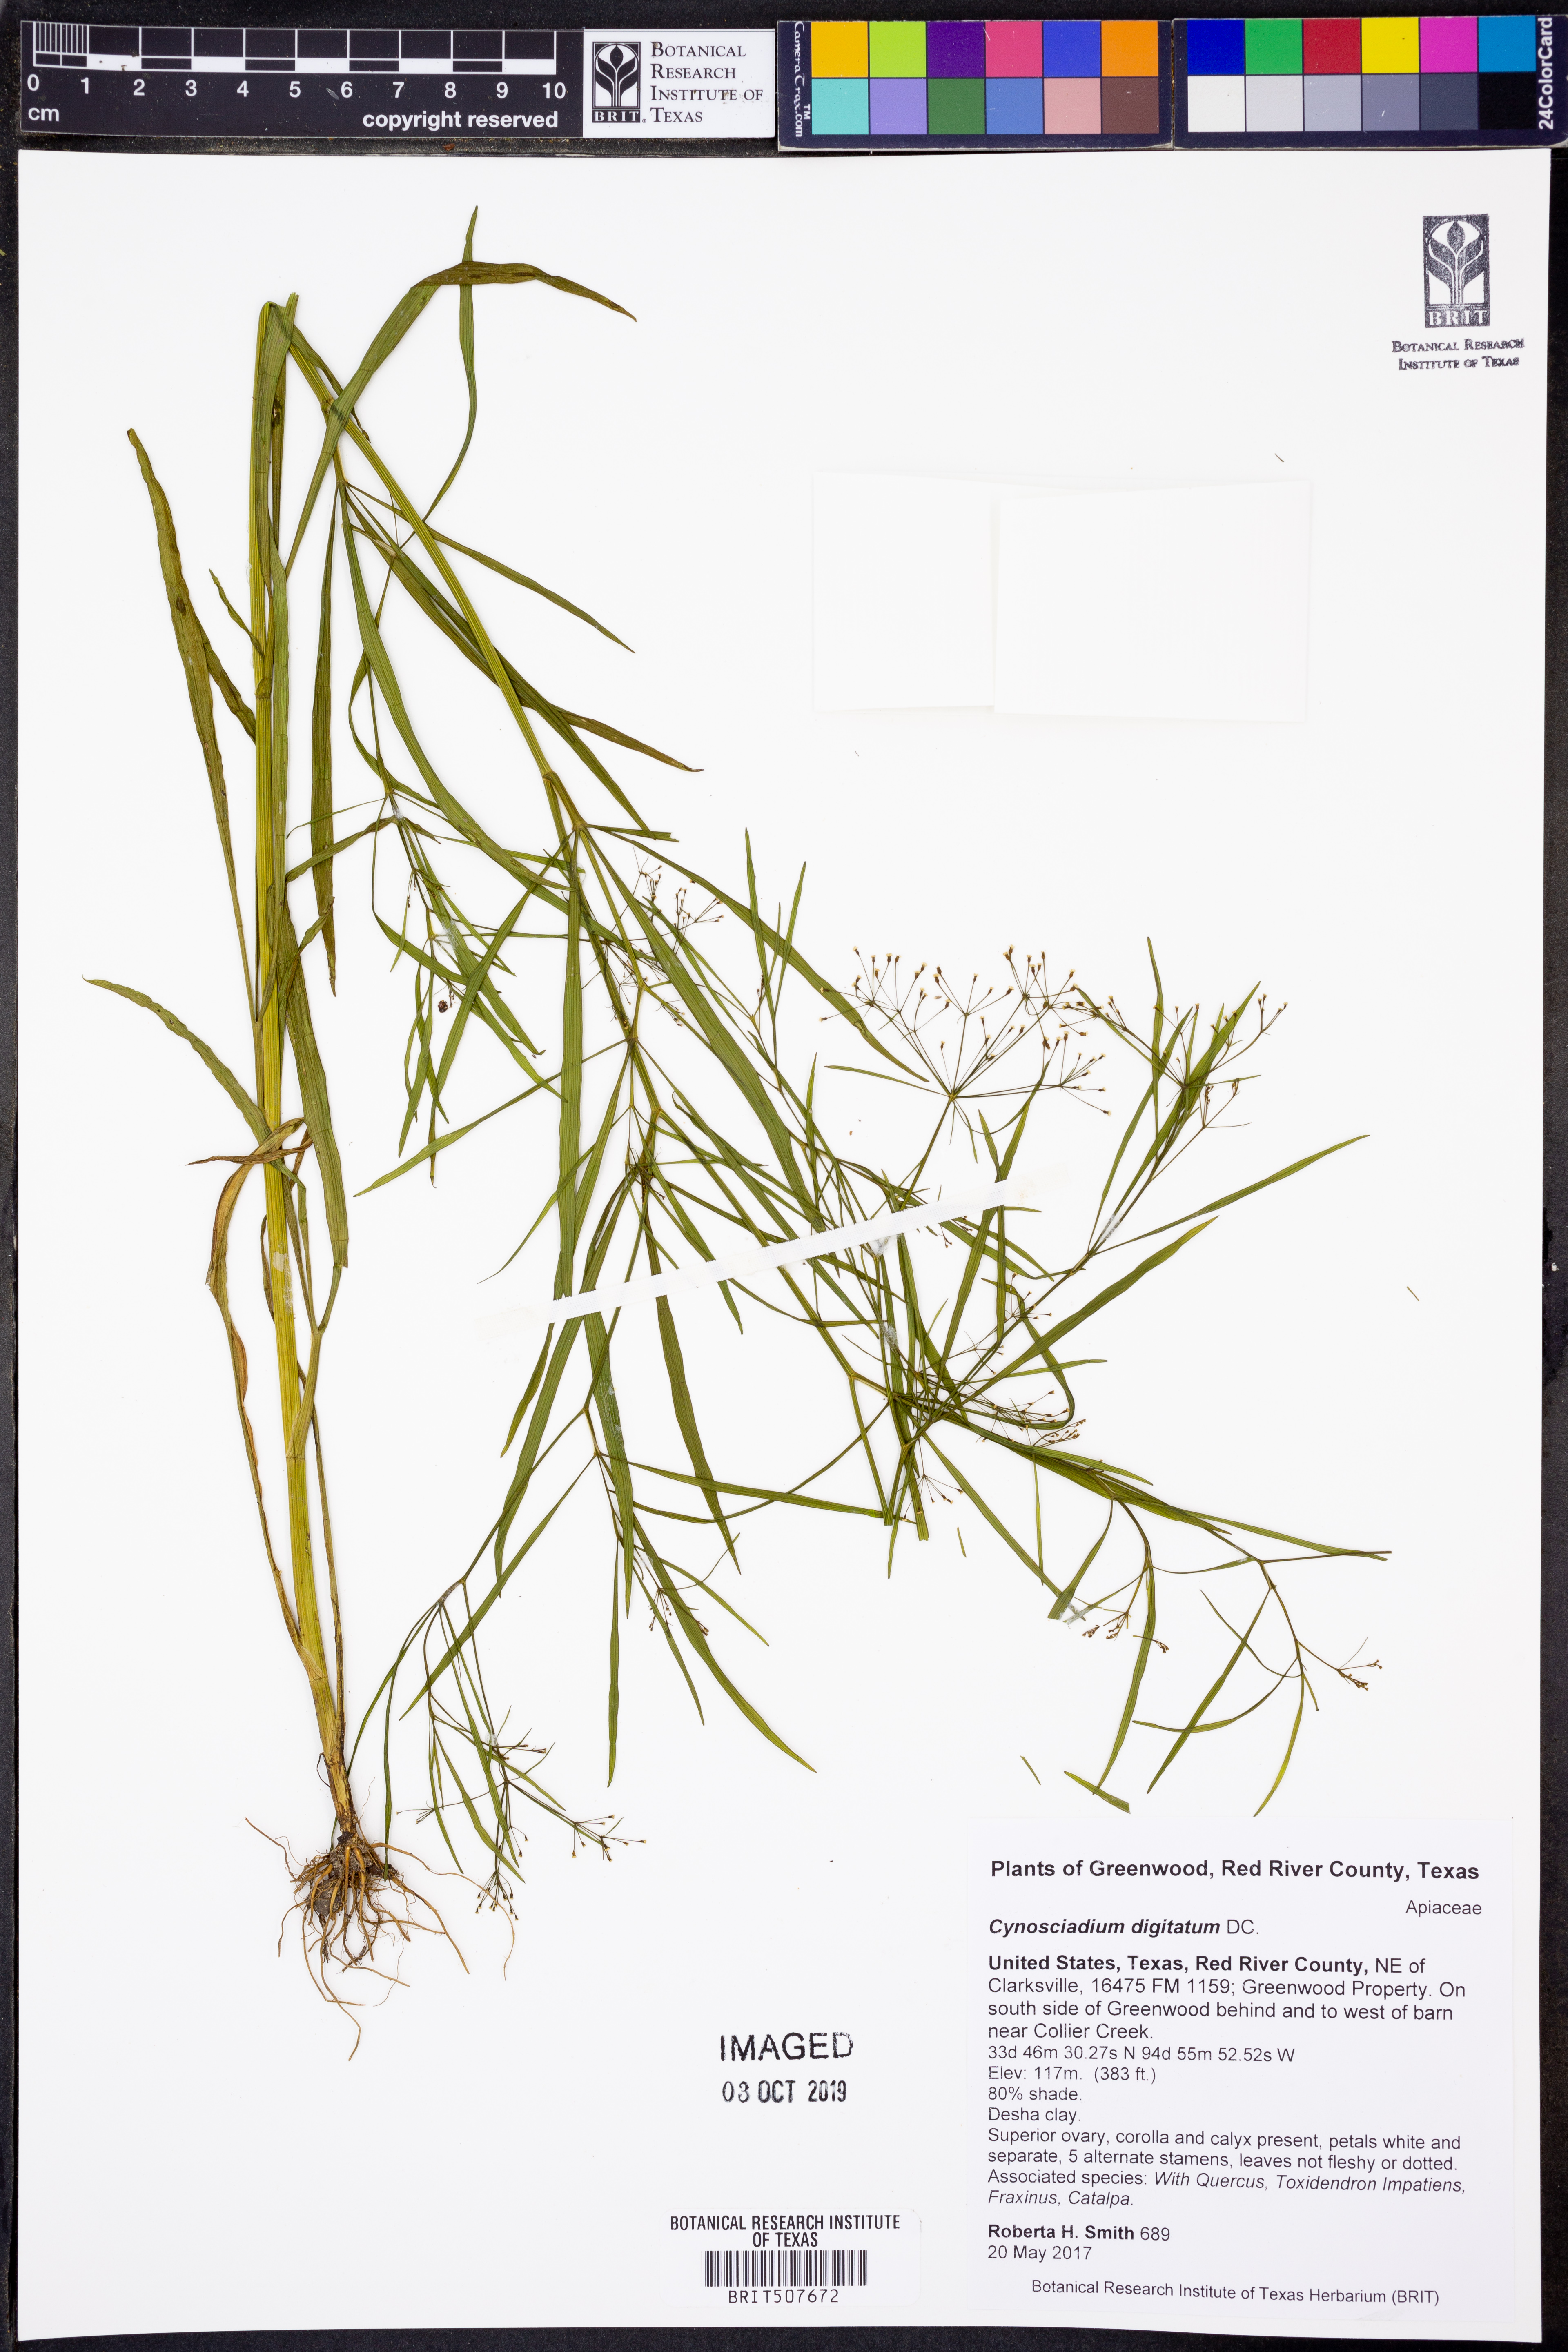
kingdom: Plantae
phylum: Tracheophyta
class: Magnoliopsida
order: Apiales
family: Apiaceae
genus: Cynosciadium
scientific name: Cynosciadium digitatum
